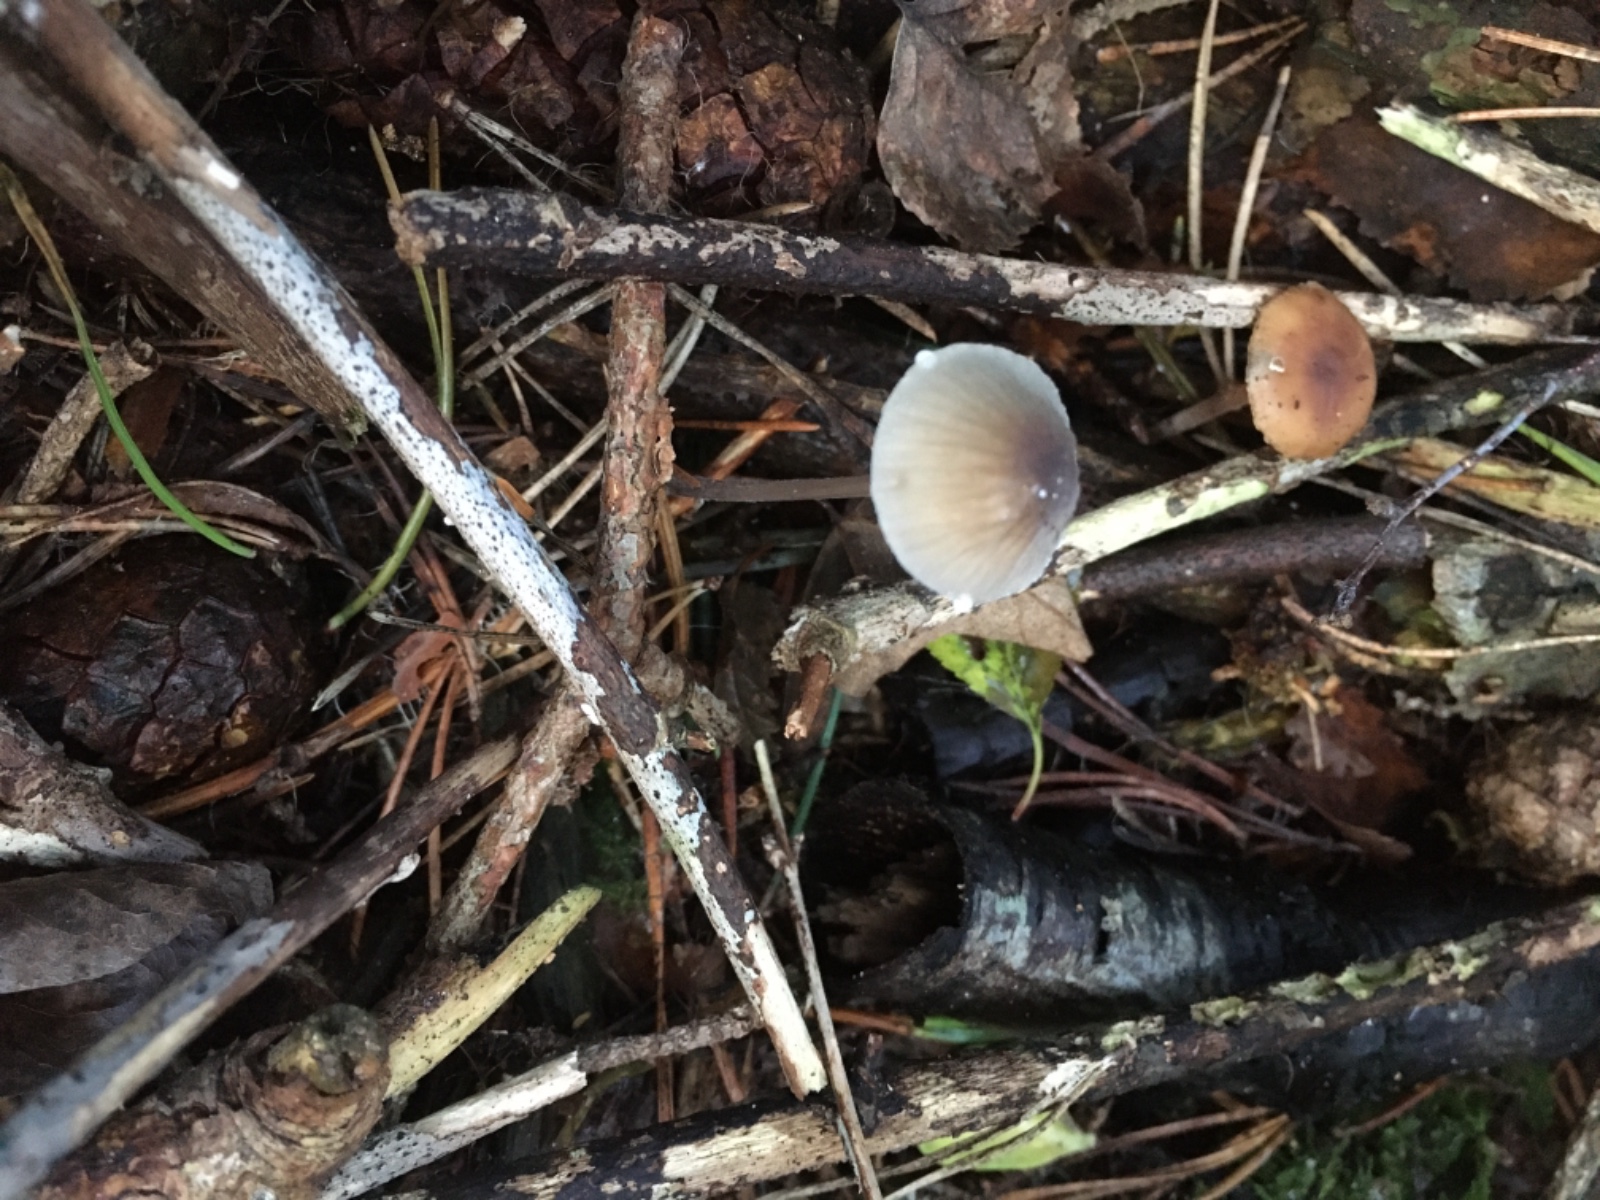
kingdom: Fungi
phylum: Basidiomycota
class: Agaricomycetes
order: Agaricales
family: Mycenaceae
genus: Mycena
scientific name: Mycena galopus
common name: hvidmælket huesvamp
